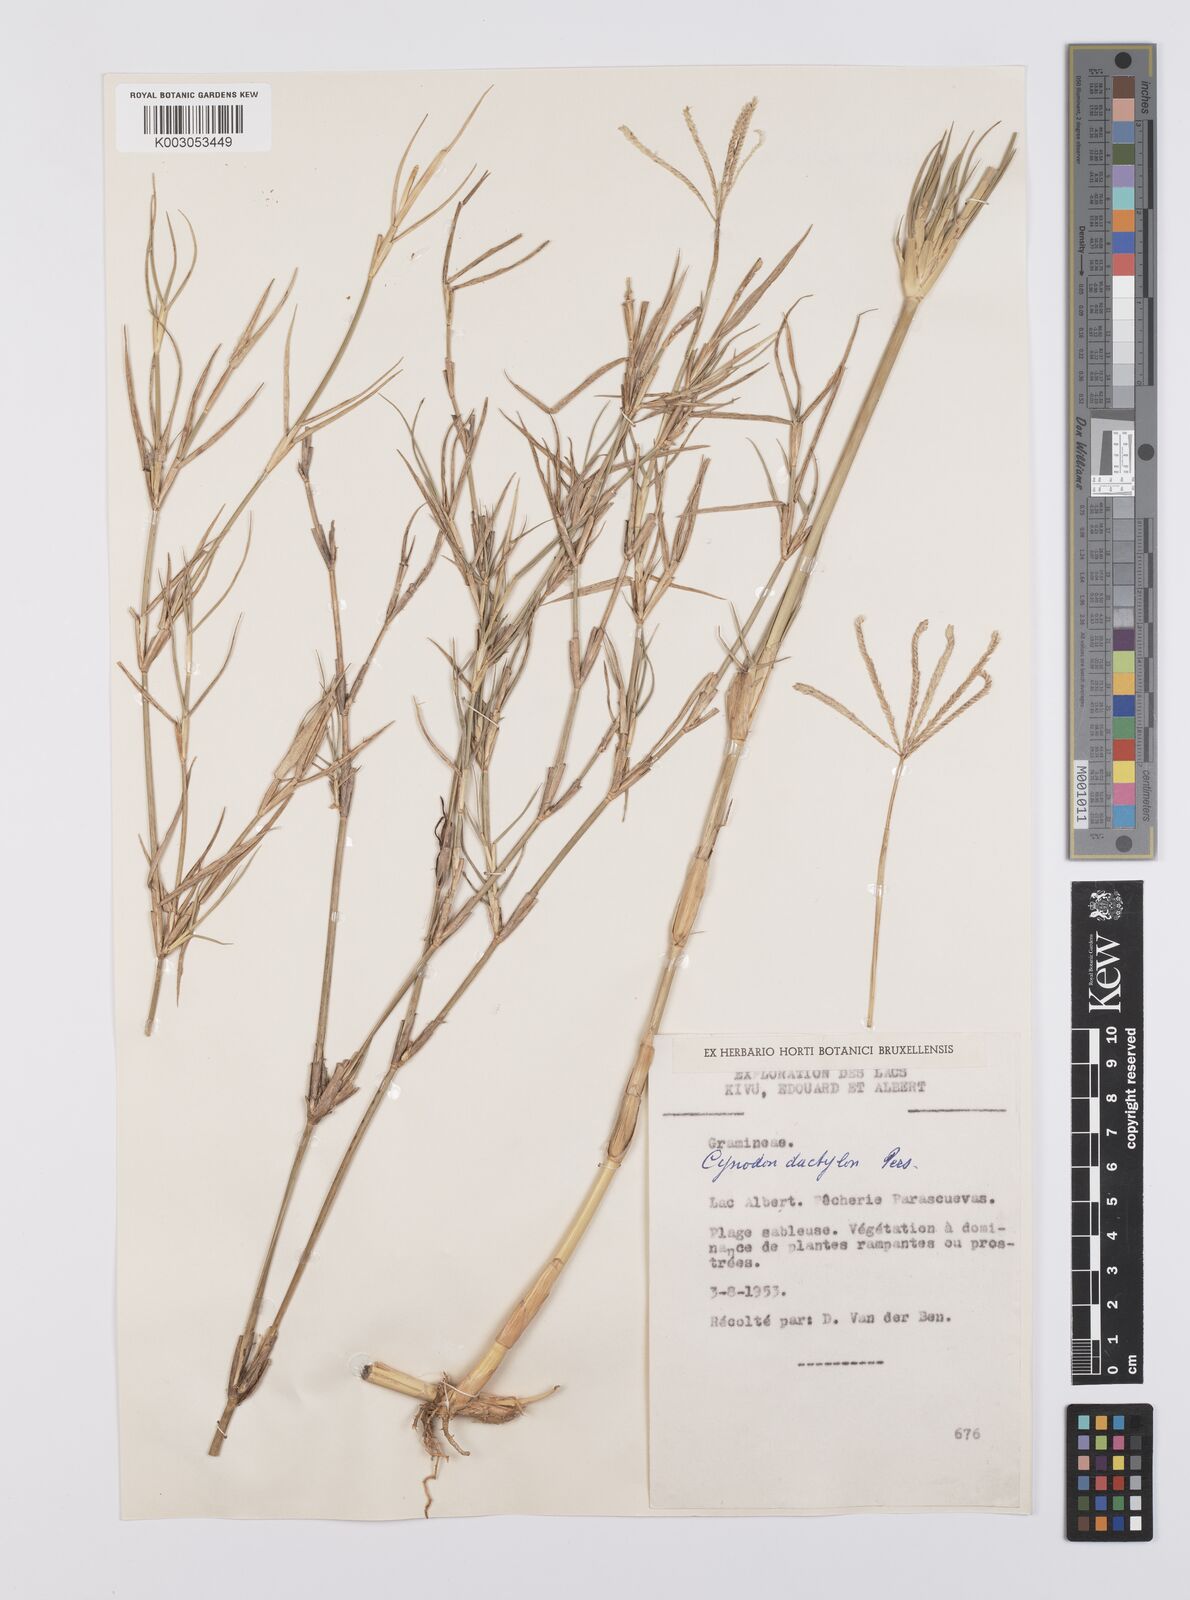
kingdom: Plantae
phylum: Tracheophyta
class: Liliopsida
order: Poales
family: Poaceae
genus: Cynodon
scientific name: Cynodon aethiopicus
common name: Ethiopian dogstooth grass
